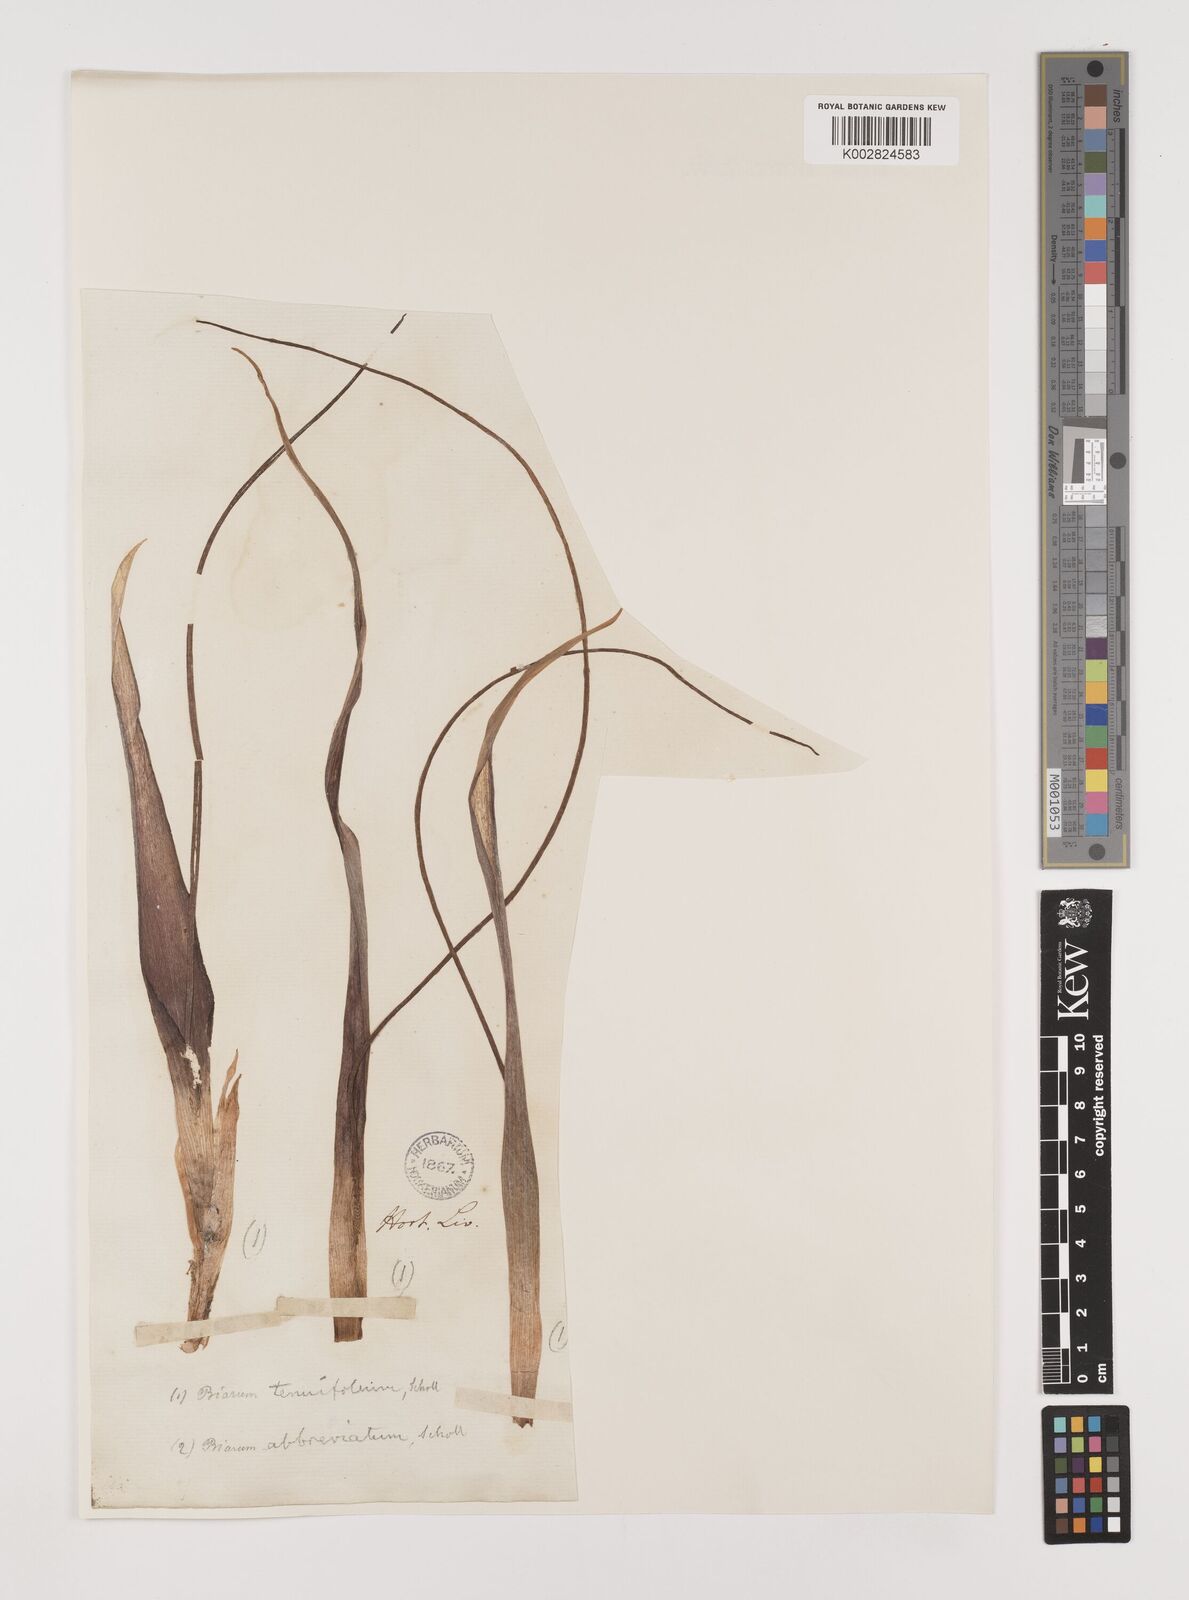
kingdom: Plantae
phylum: Tracheophyta
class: Liliopsida
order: Alismatales
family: Araceae
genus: Biarum
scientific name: Biarum tenuifolium
